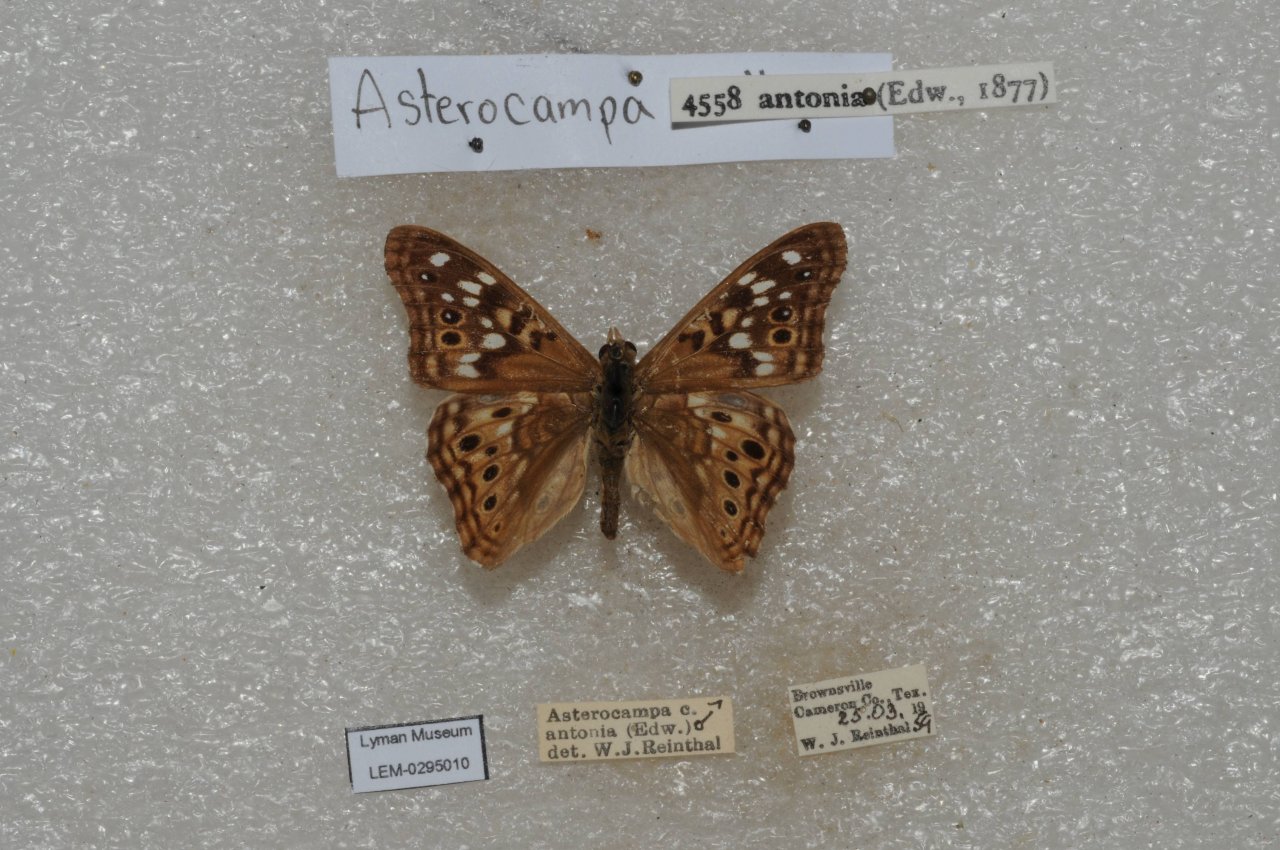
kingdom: Animalia
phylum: Arthropoda
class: Insecta
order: Lepidoptera
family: Nymphalidae
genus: Asterocampa
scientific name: Asterocampa celtis
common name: Hackberry Emperor
